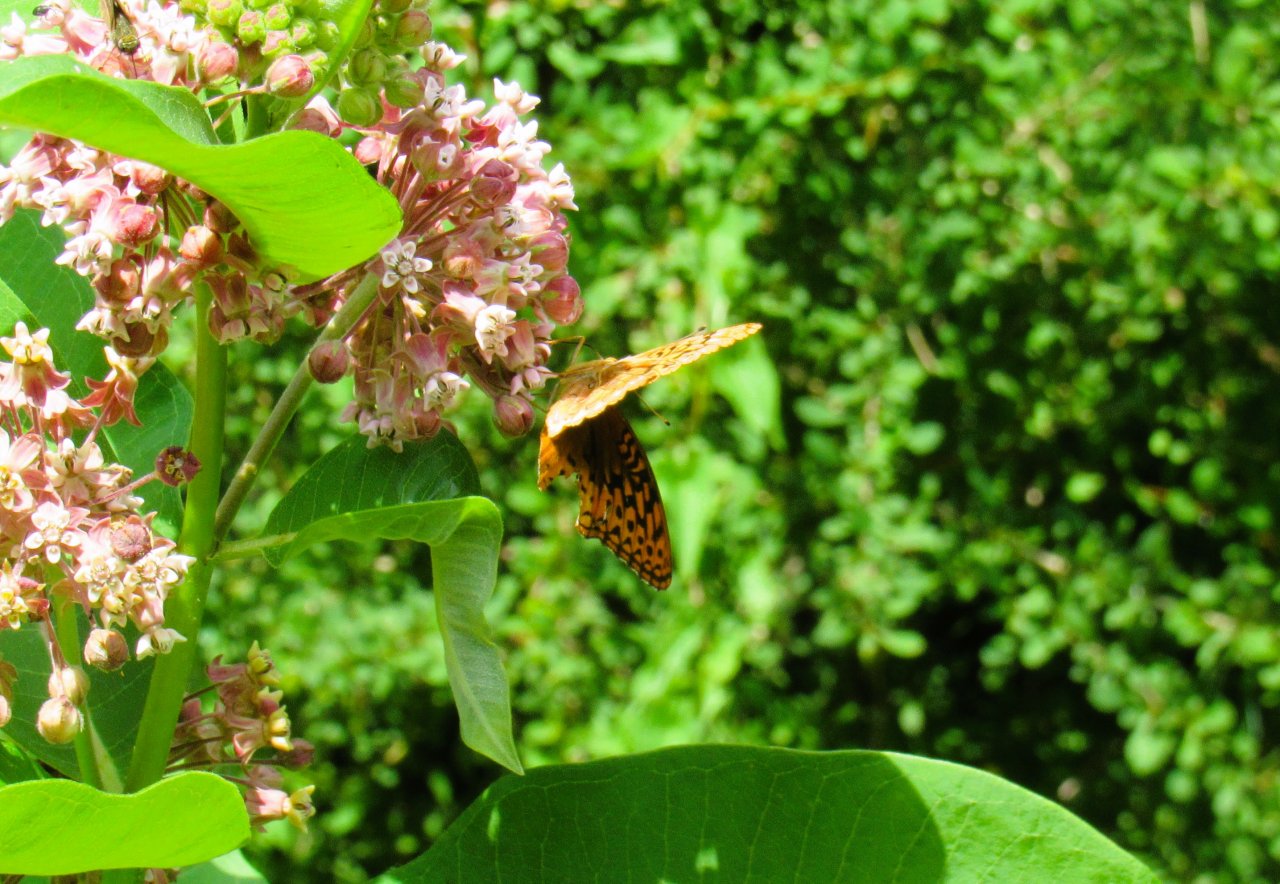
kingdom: Animalia
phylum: Arthropoda
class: Insecta
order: Lepidoptera
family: Nymphalidae
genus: Speyeria
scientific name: Speyeria cybele
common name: Great Spangled Fritillary
